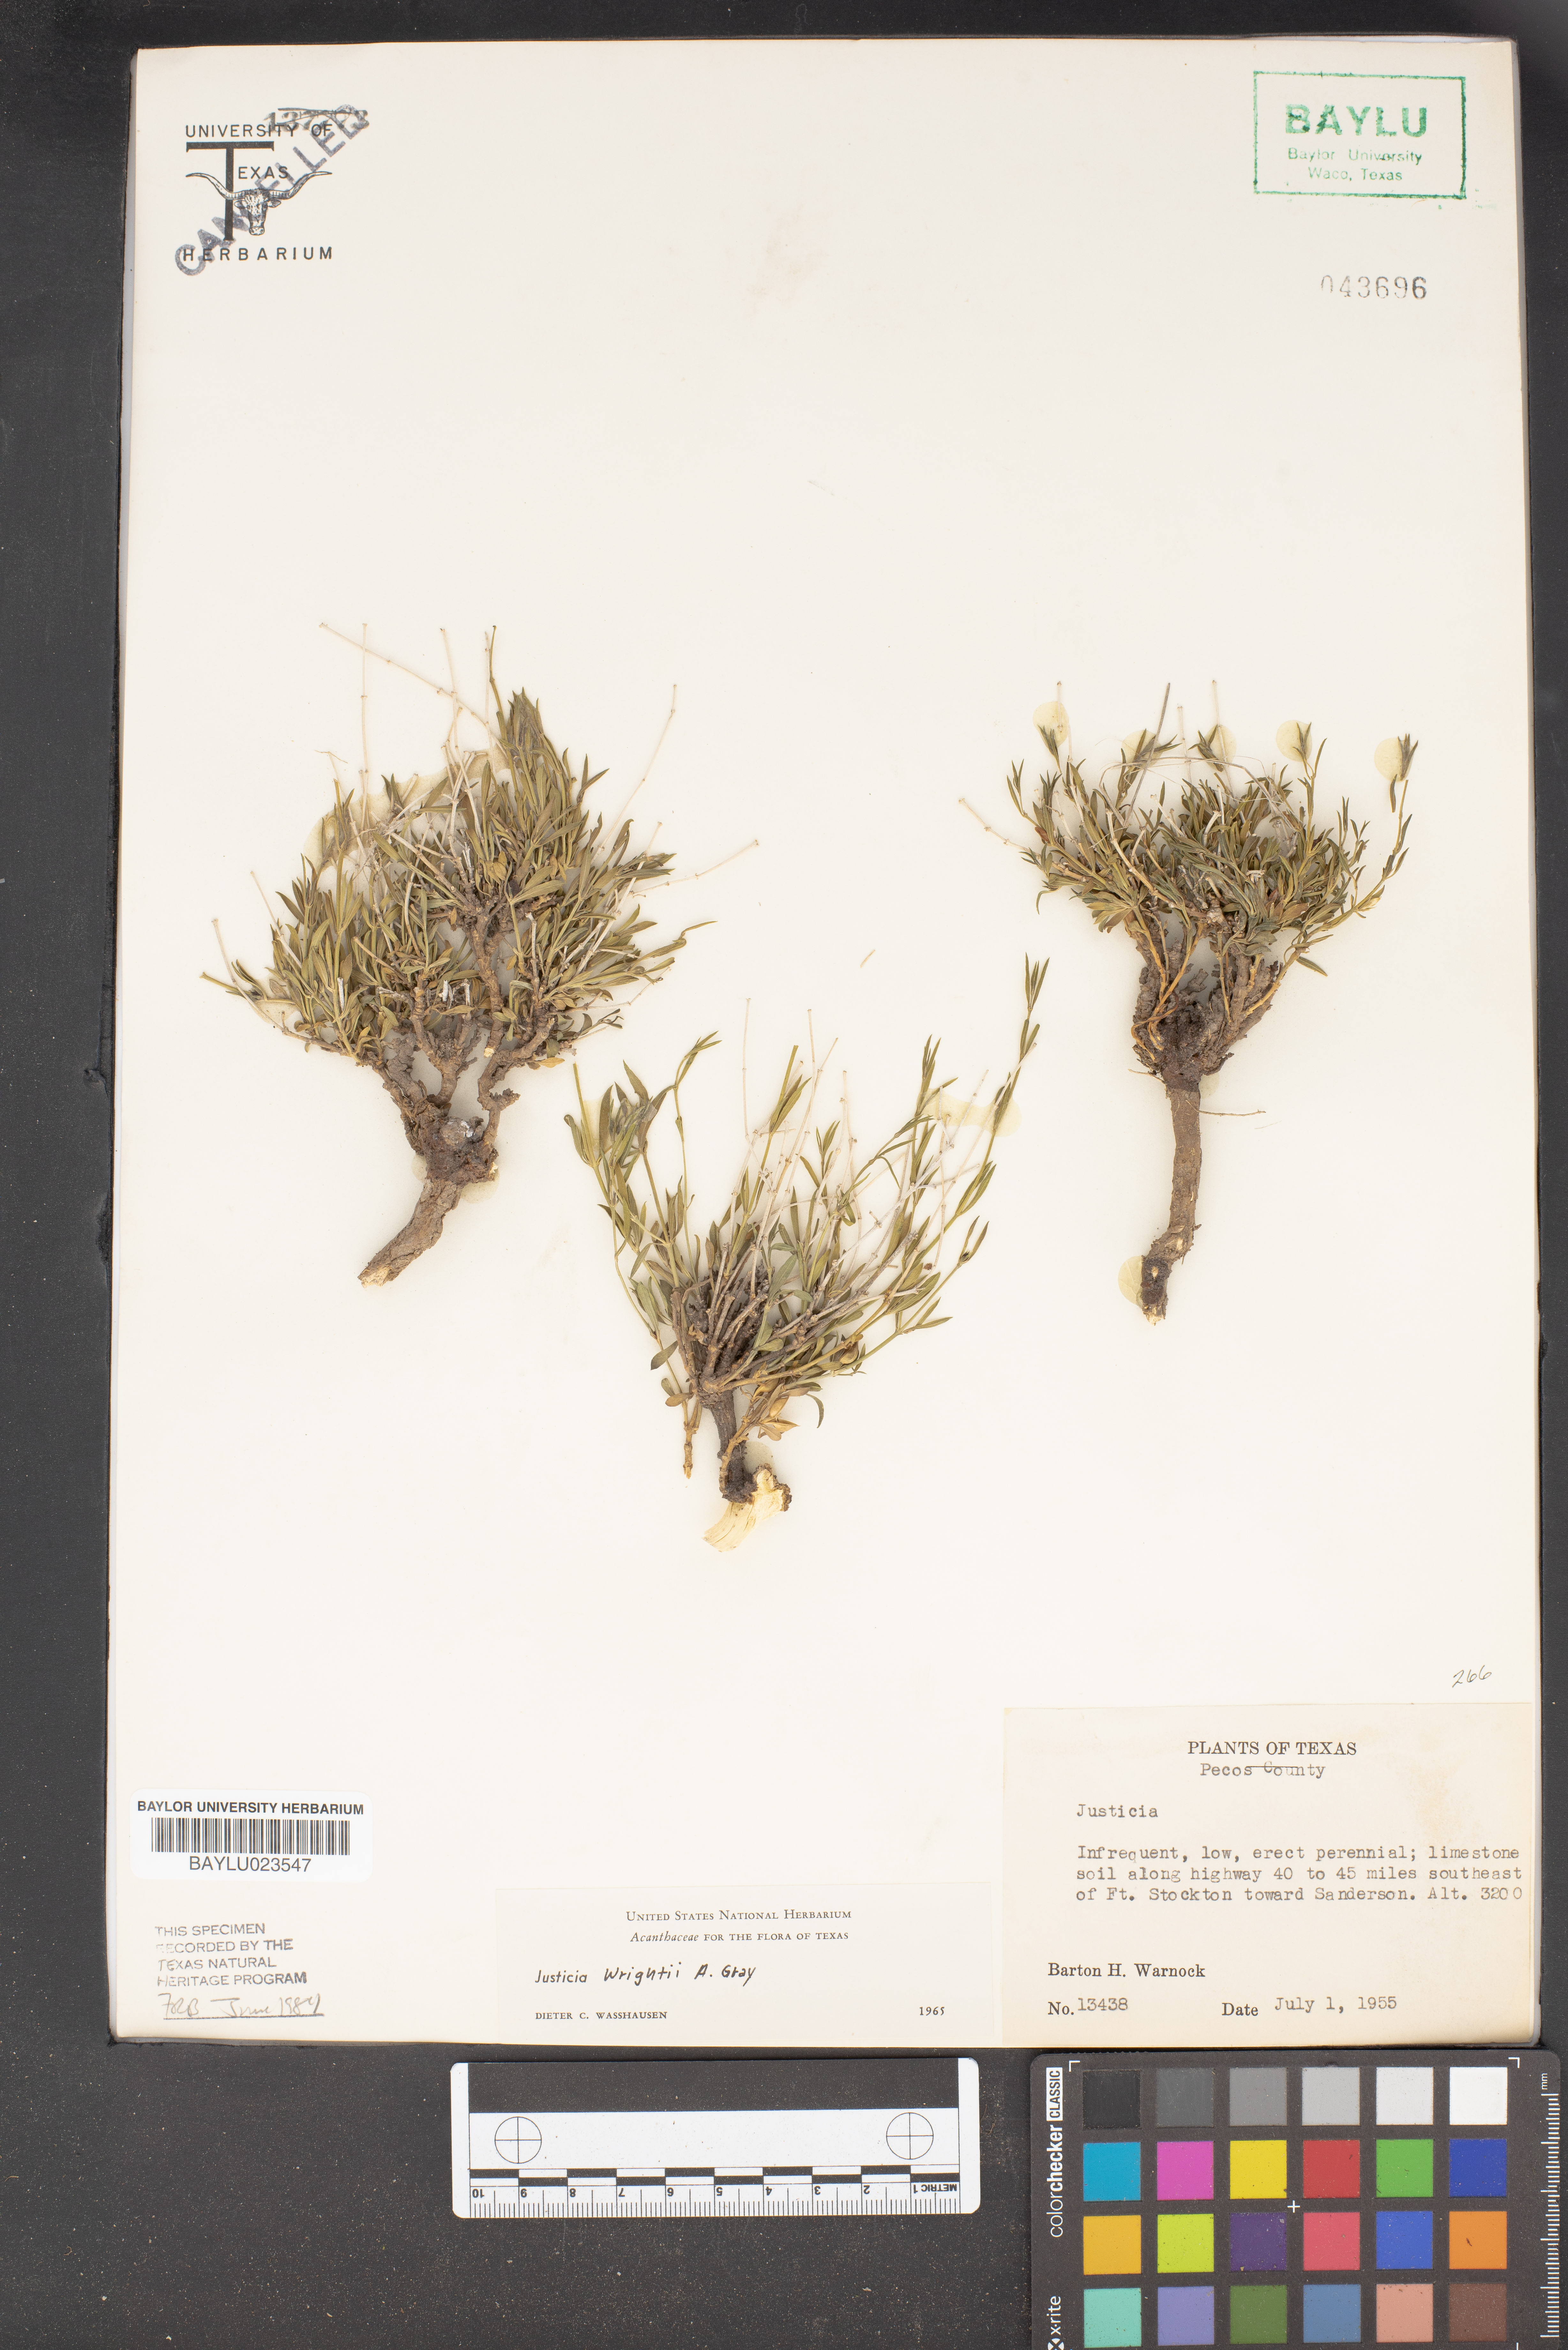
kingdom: Plantae
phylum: Tracheophyta
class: Magnoliopsida
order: Lamiales
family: Acanthaceae
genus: Justicia
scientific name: Justicia
